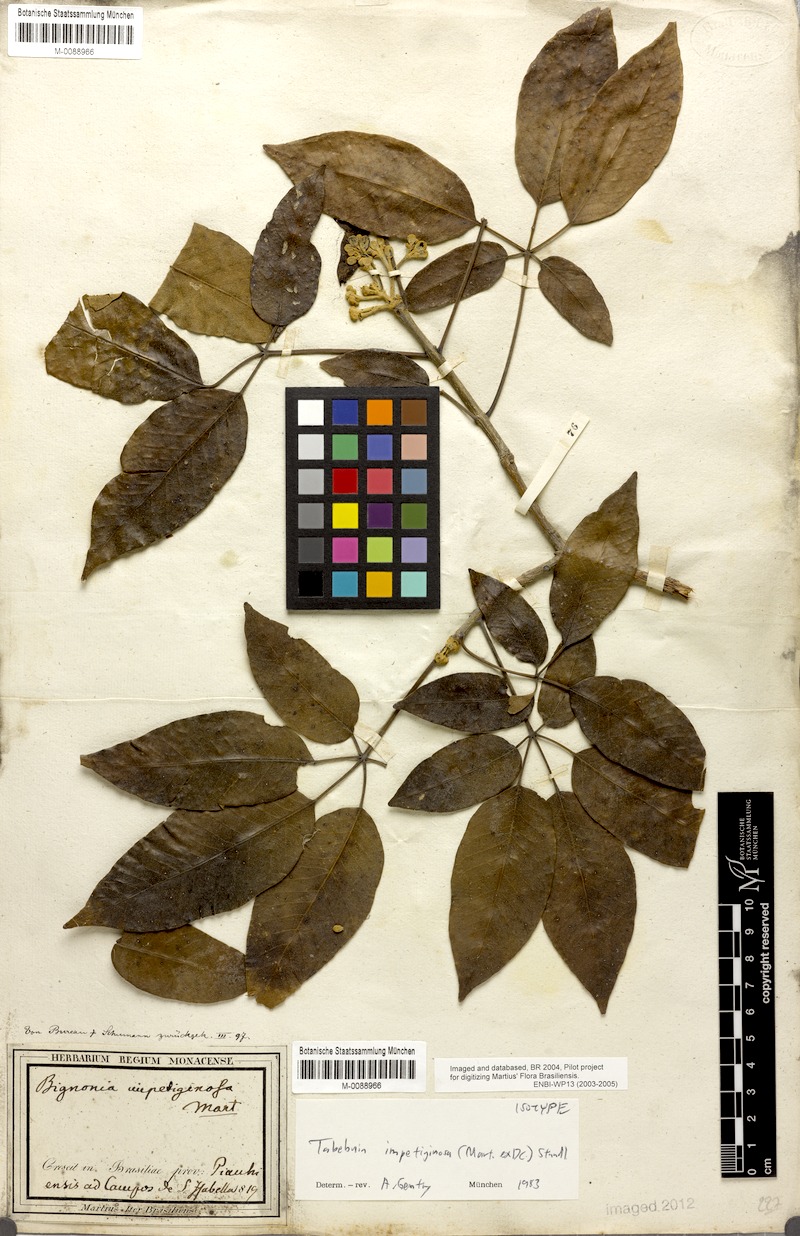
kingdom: Plantae
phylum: Tracheophyta
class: Magnoliopsida
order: Lamiales
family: Bignoniaceae
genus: Handroanthus
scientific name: Handroanthus impetiginosum
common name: Pink trumpet tree
